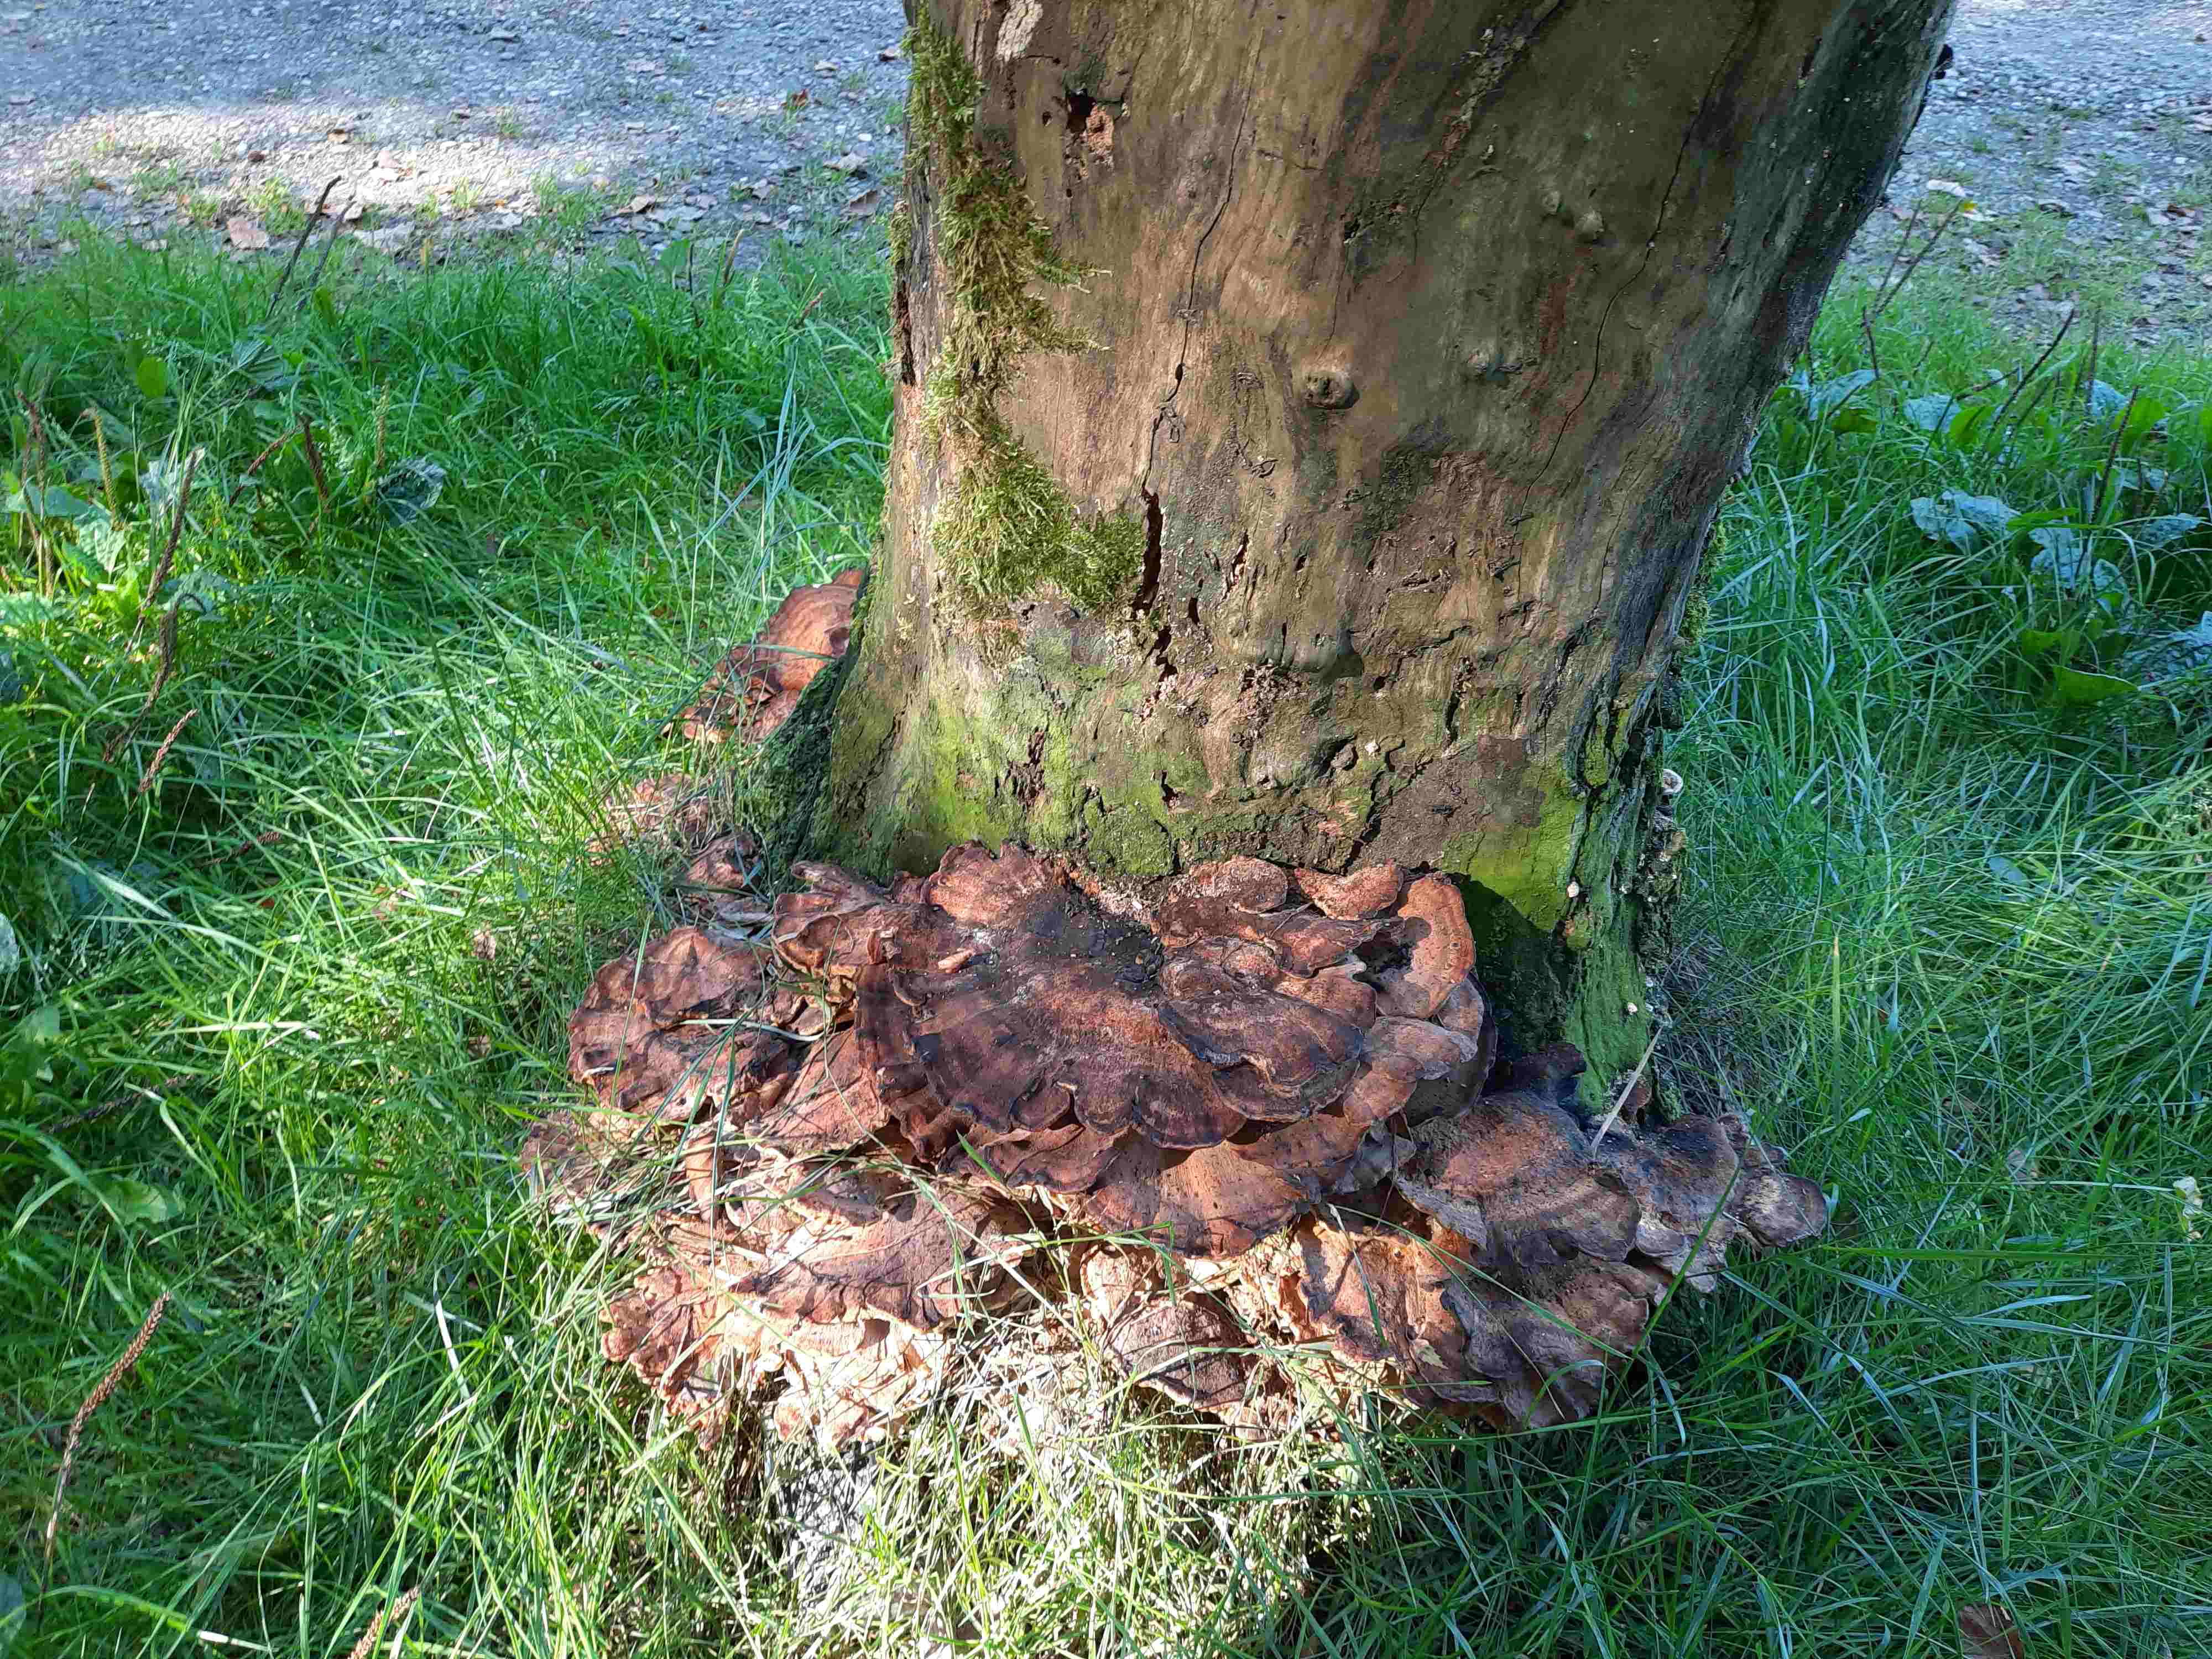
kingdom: Fungi
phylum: Basidiomycota
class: Agaricomycetes
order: Polyporales
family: Meripilaceae
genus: Meripilus
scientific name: Meripilus giganteus
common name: kæmpeporesvamp
